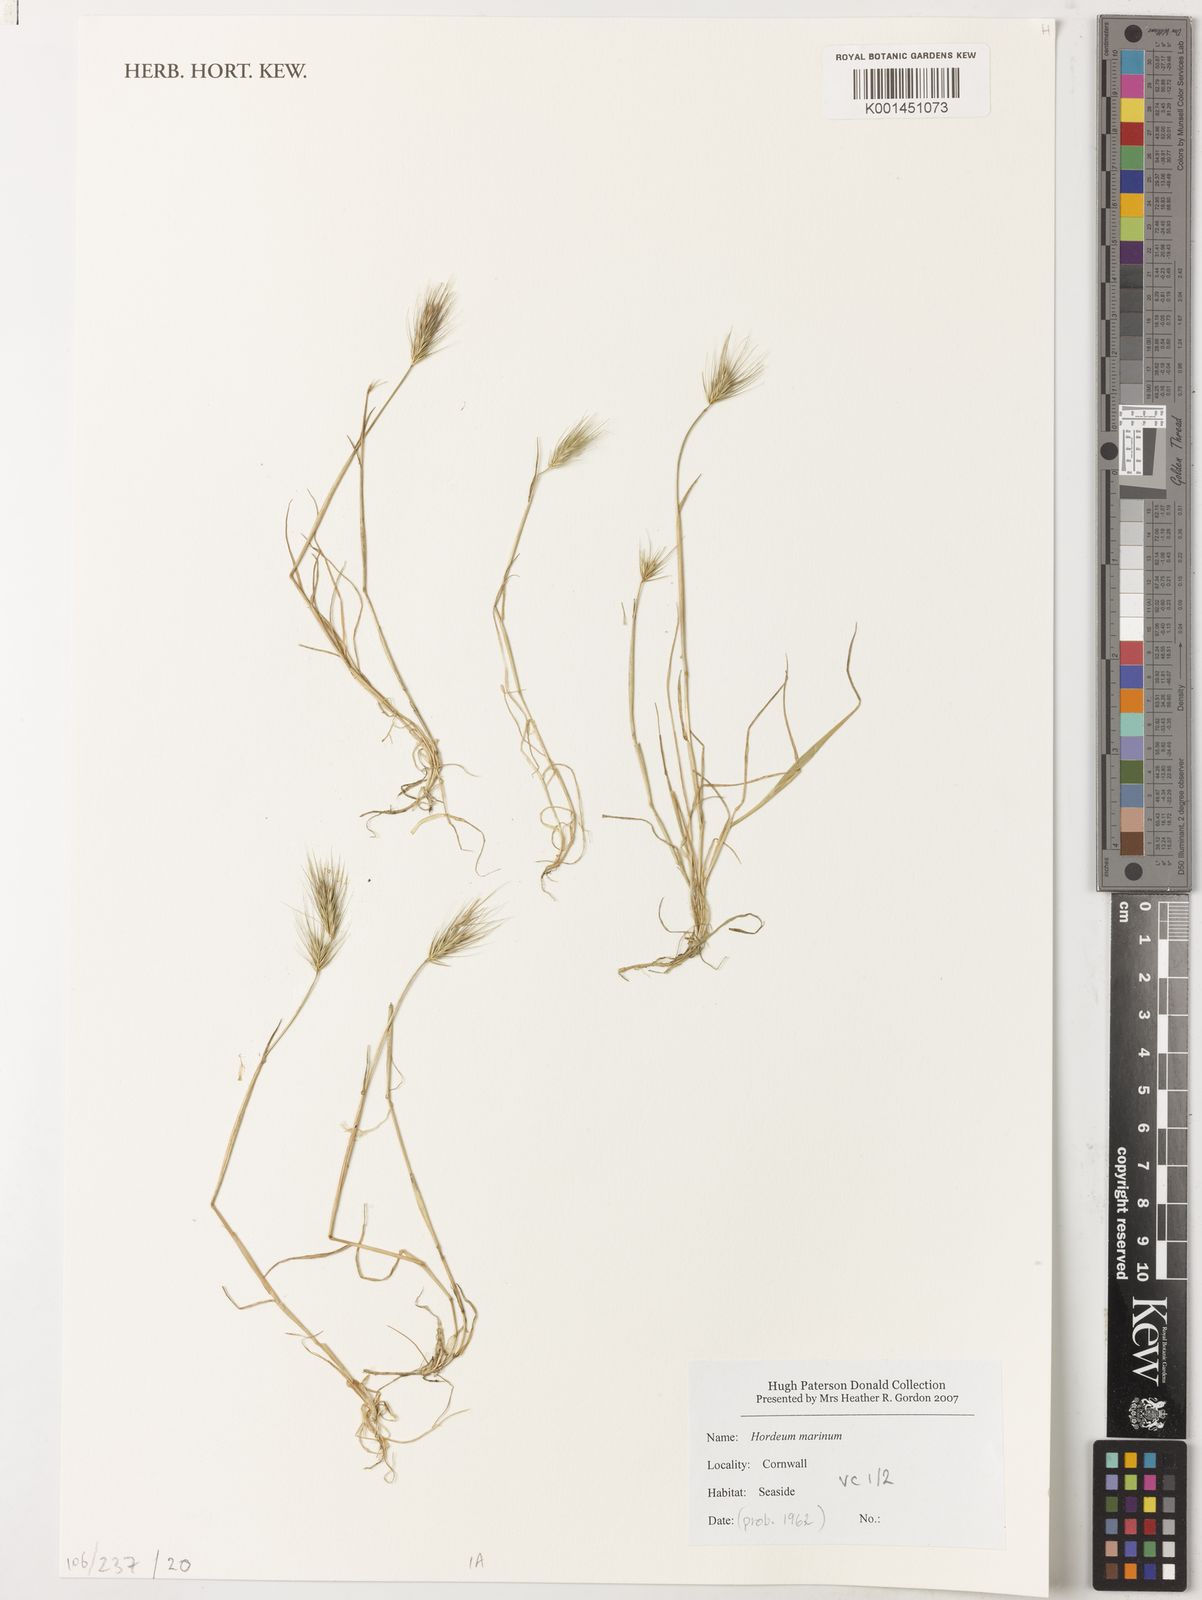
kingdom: Plantae
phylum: Tracheophyta
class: Liliopsida
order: Poales
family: Poaceae
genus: Hordeum
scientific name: Hordeum marinum
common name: Sea barley
